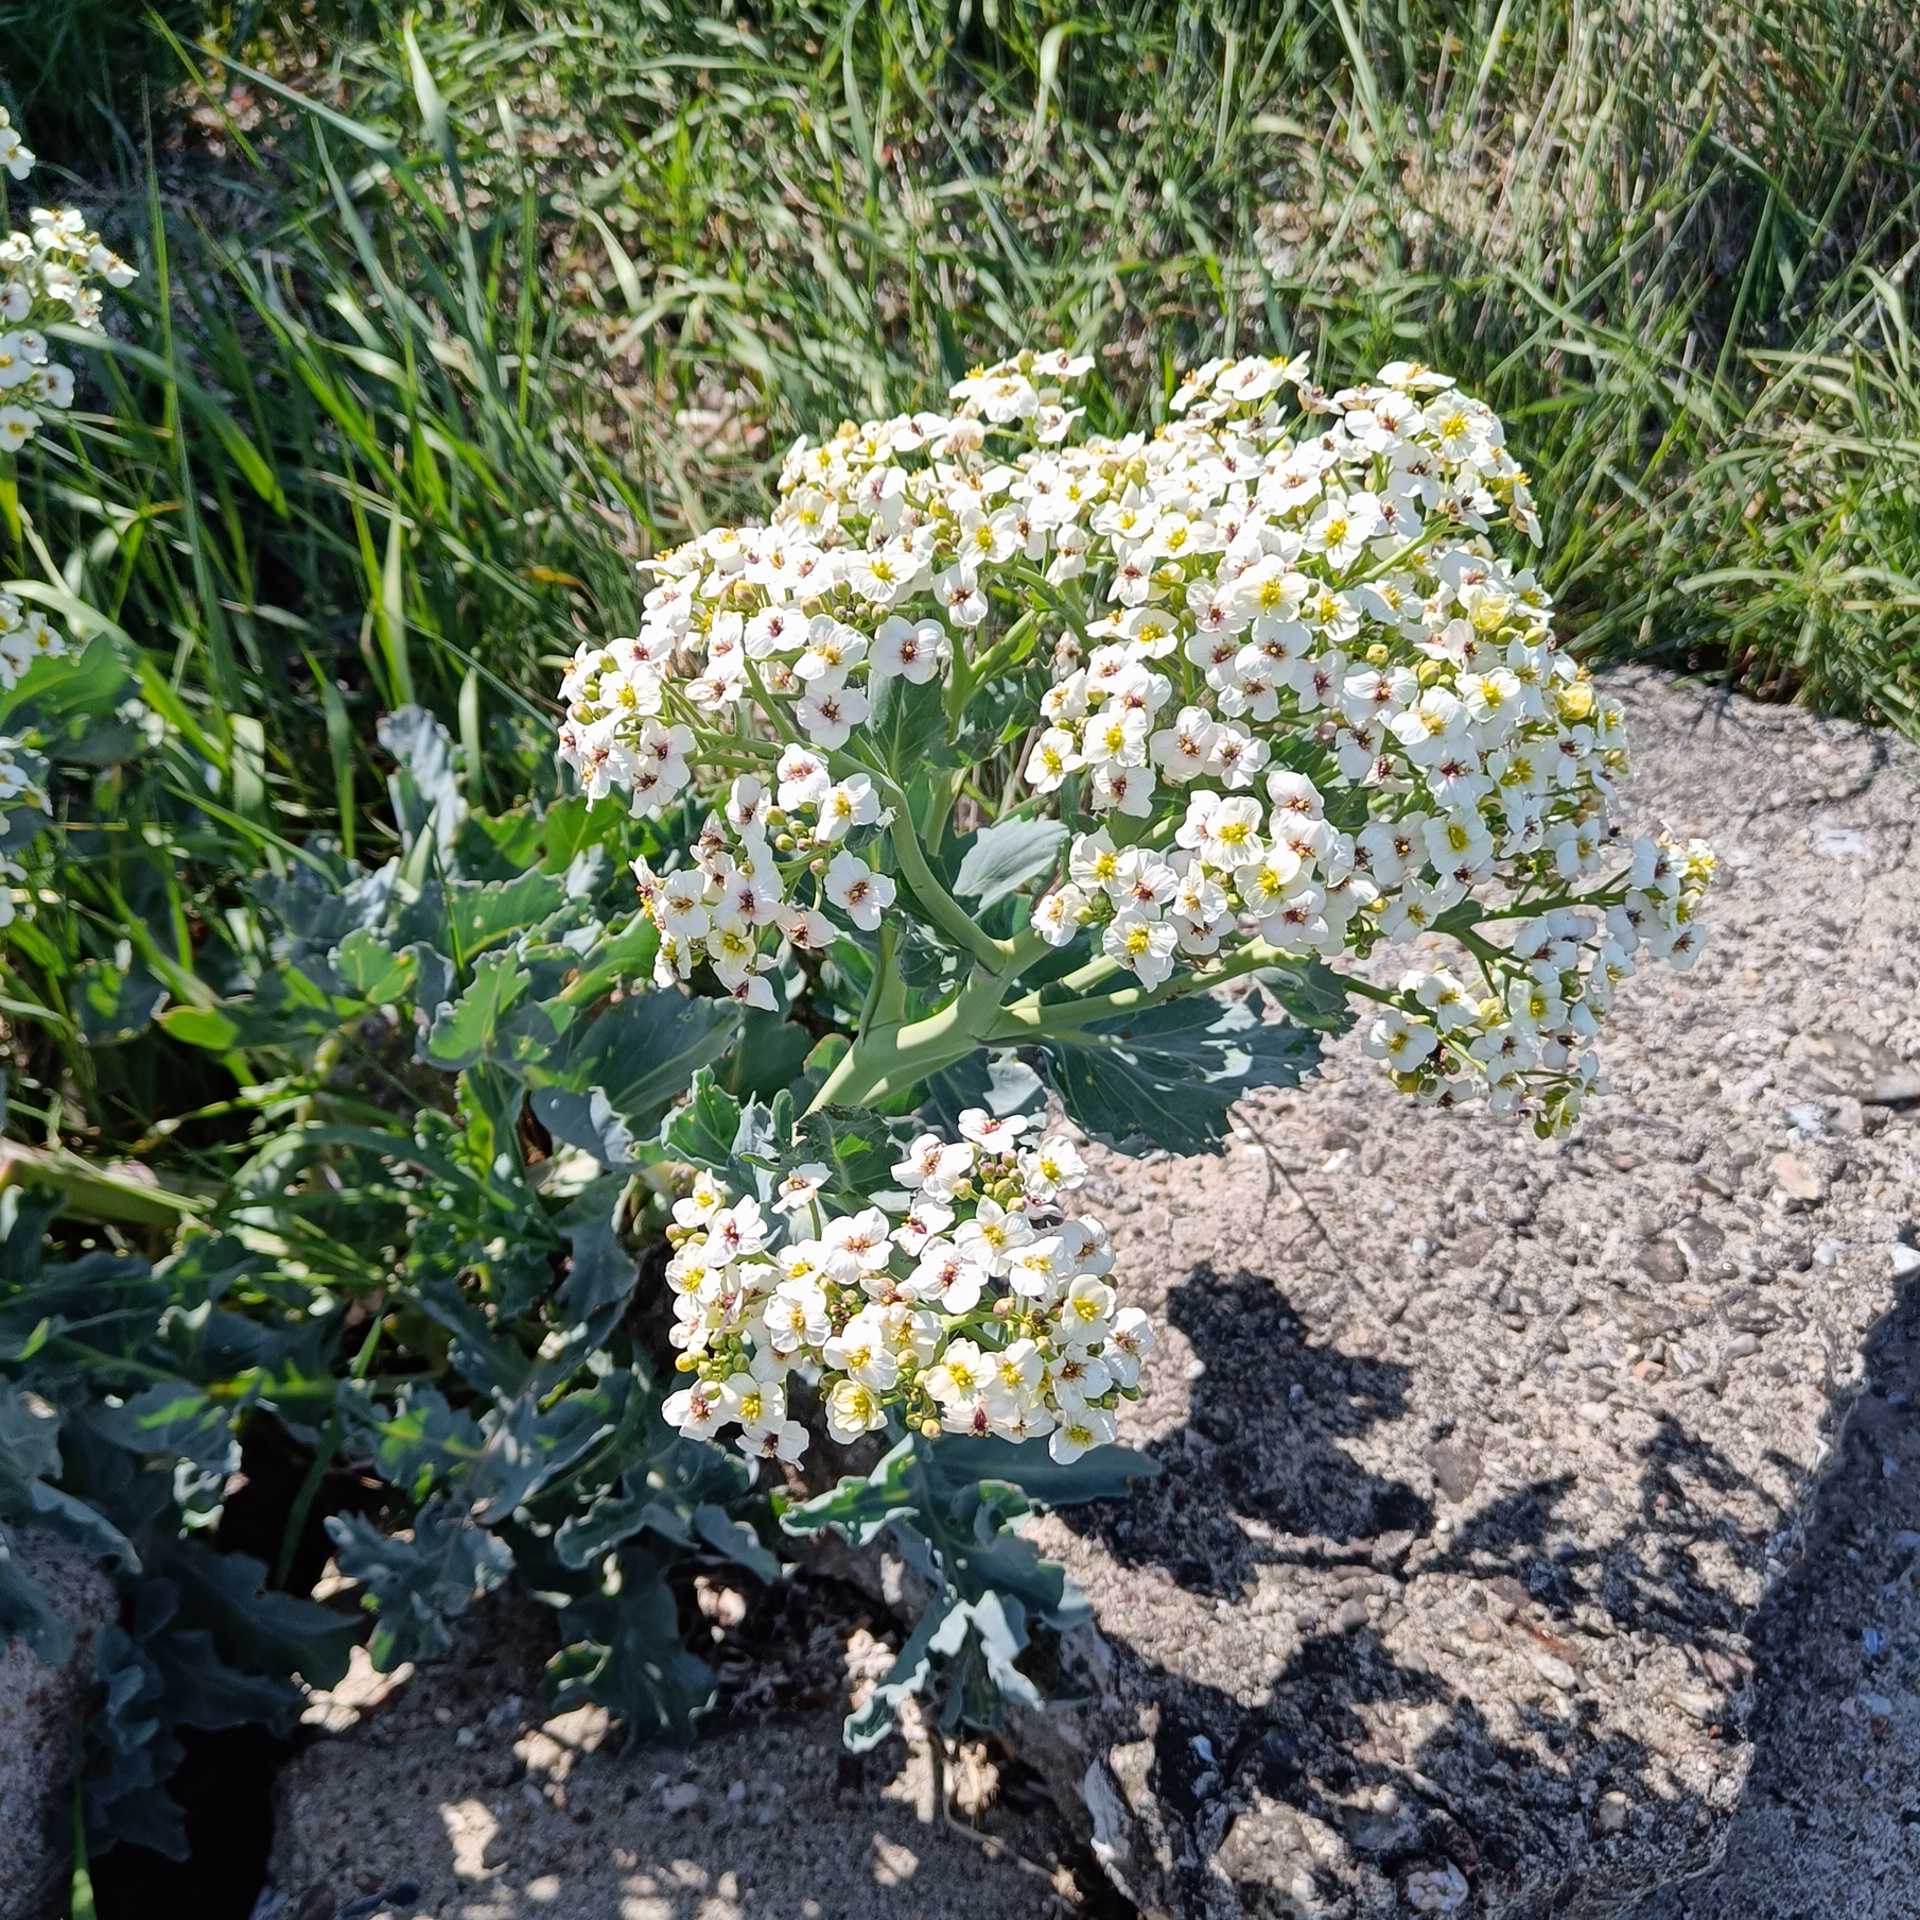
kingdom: Plantae
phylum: Tracheophyta
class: Magnoliopsida
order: Brassicales
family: Brassicaceae
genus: Crambe
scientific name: Crambe maritima
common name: Strandkål
